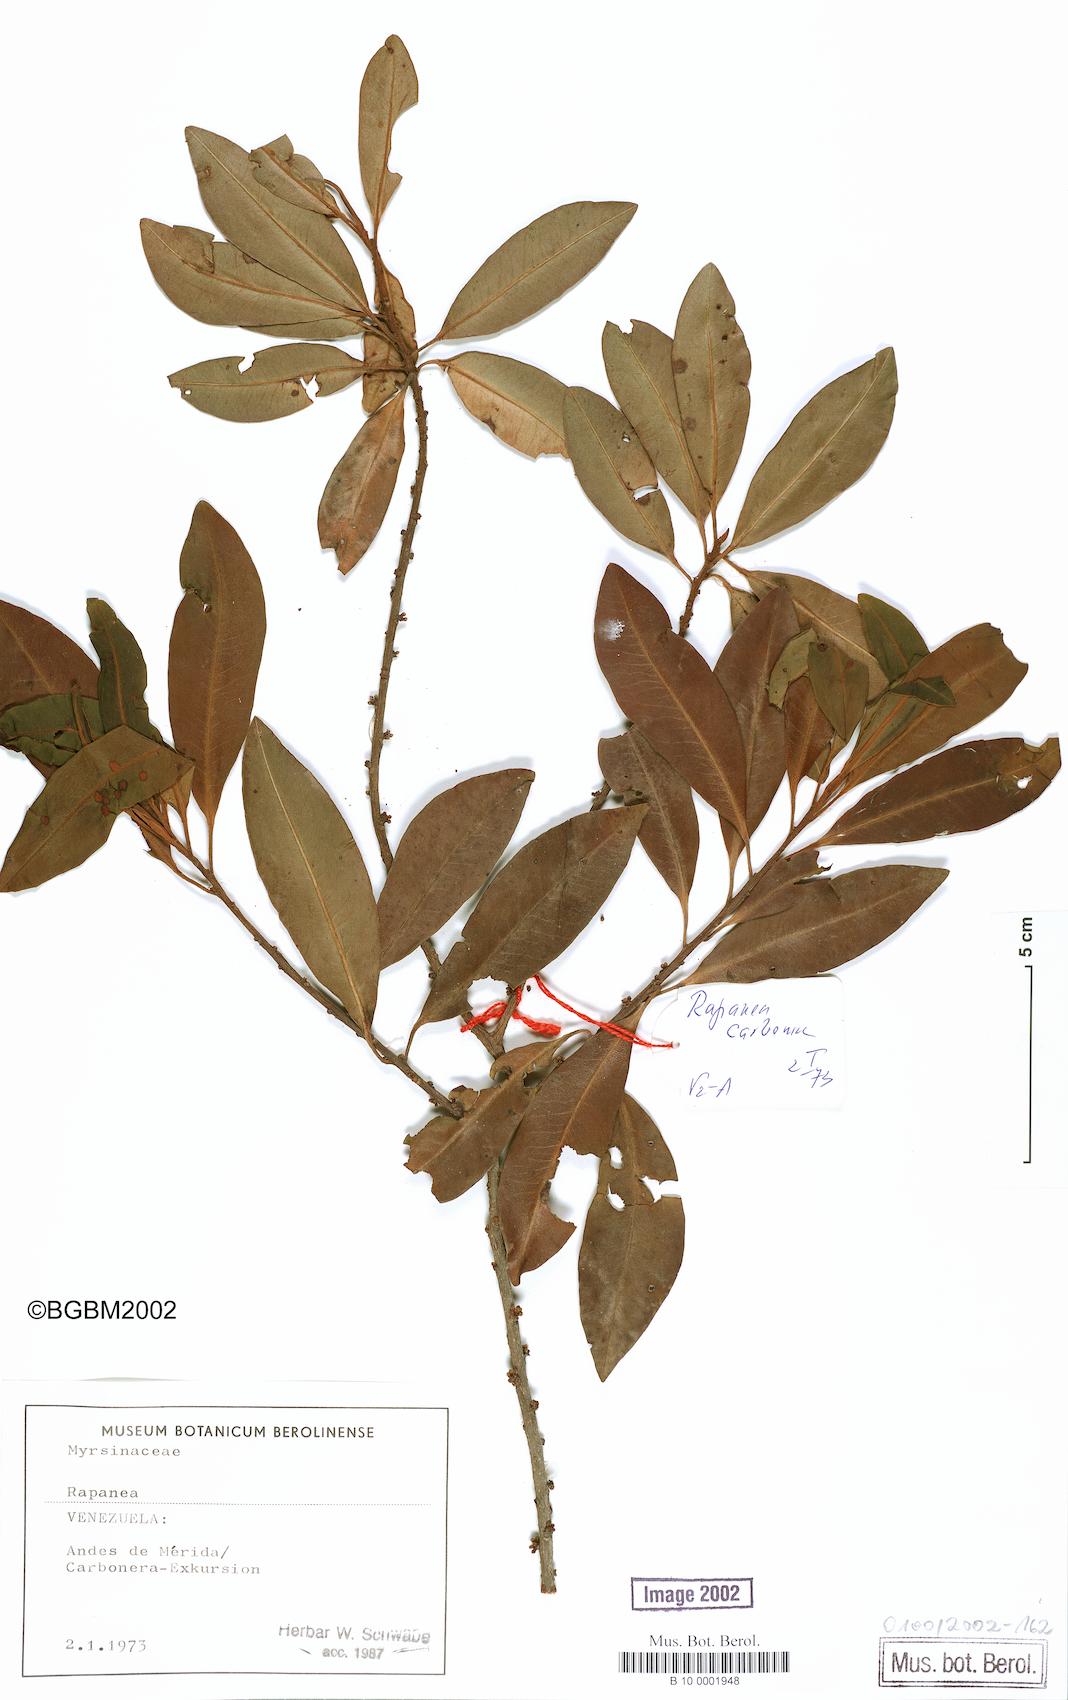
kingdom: Plantae
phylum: Tracheophyta
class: Magnoliopsida
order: Ericales
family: Primulaceae
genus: Myrsine
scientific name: Myrsine
